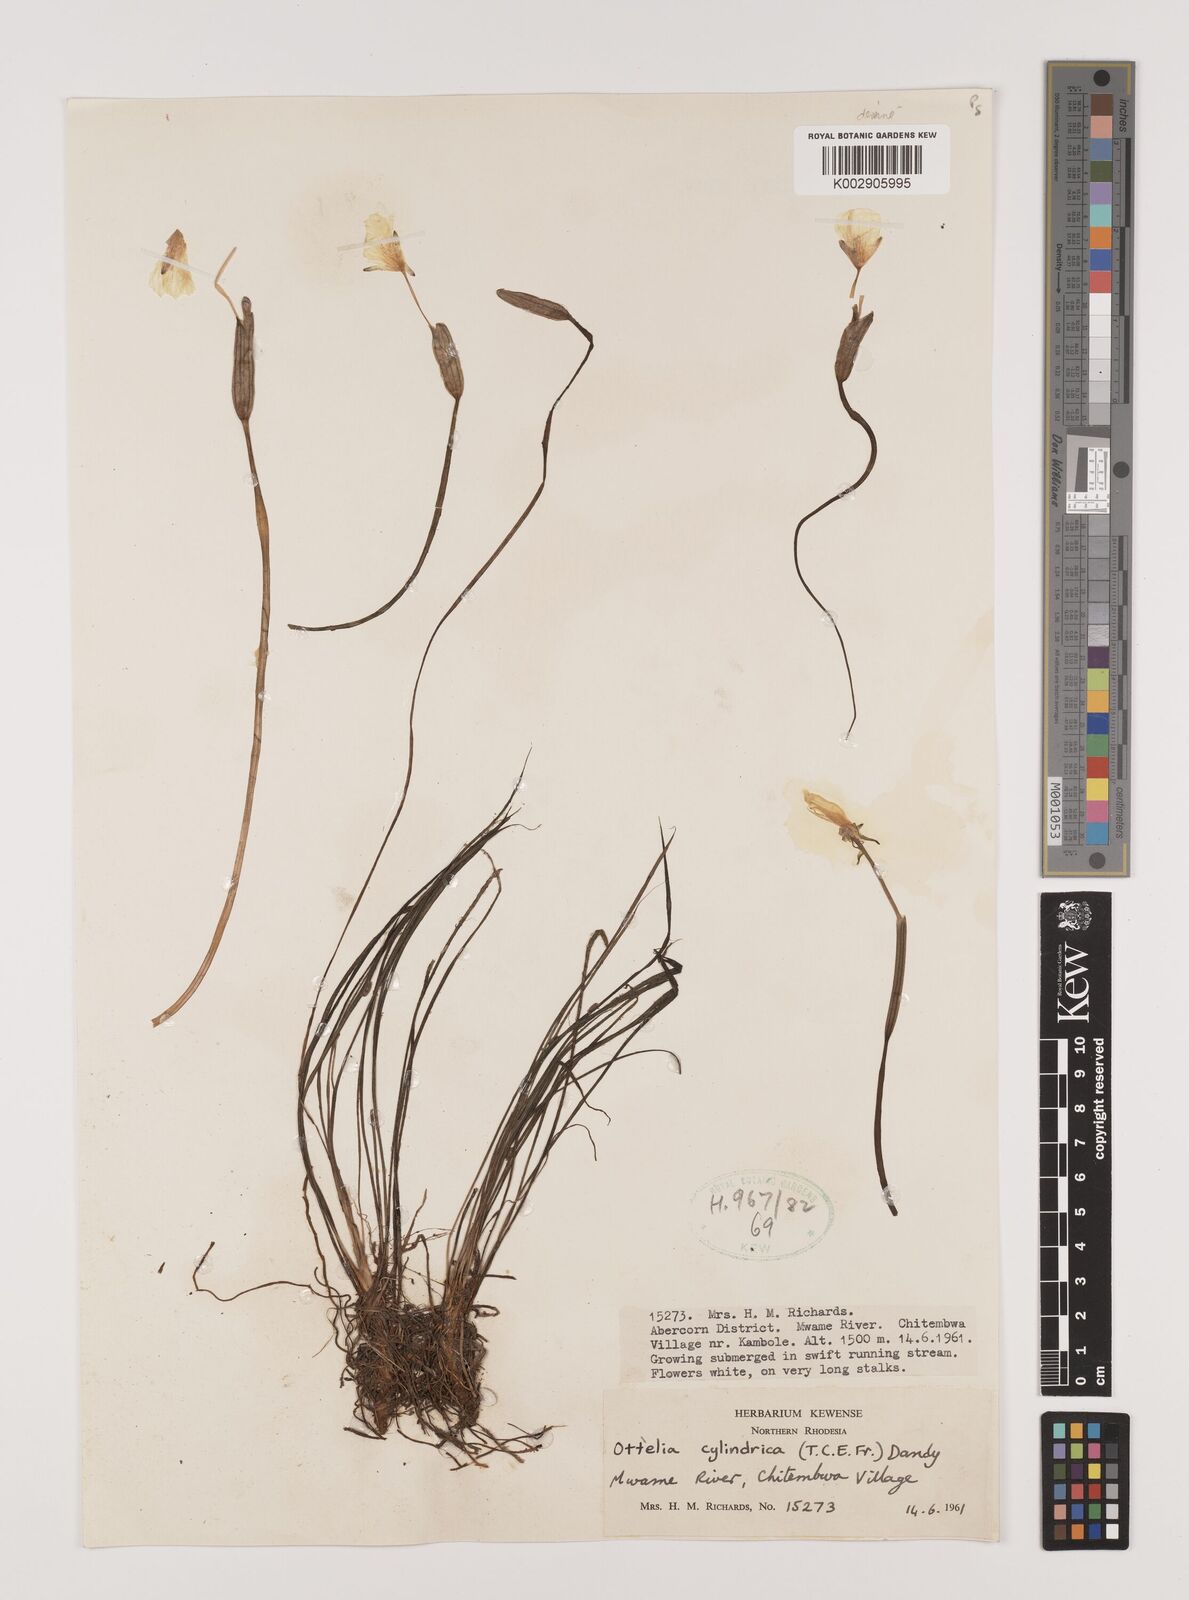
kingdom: Plantae
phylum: Tracheophyta
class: Liliopsida
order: Alismatales
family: Hydrocharitaceae
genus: Ottelia
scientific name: Ottelia cylindrica
